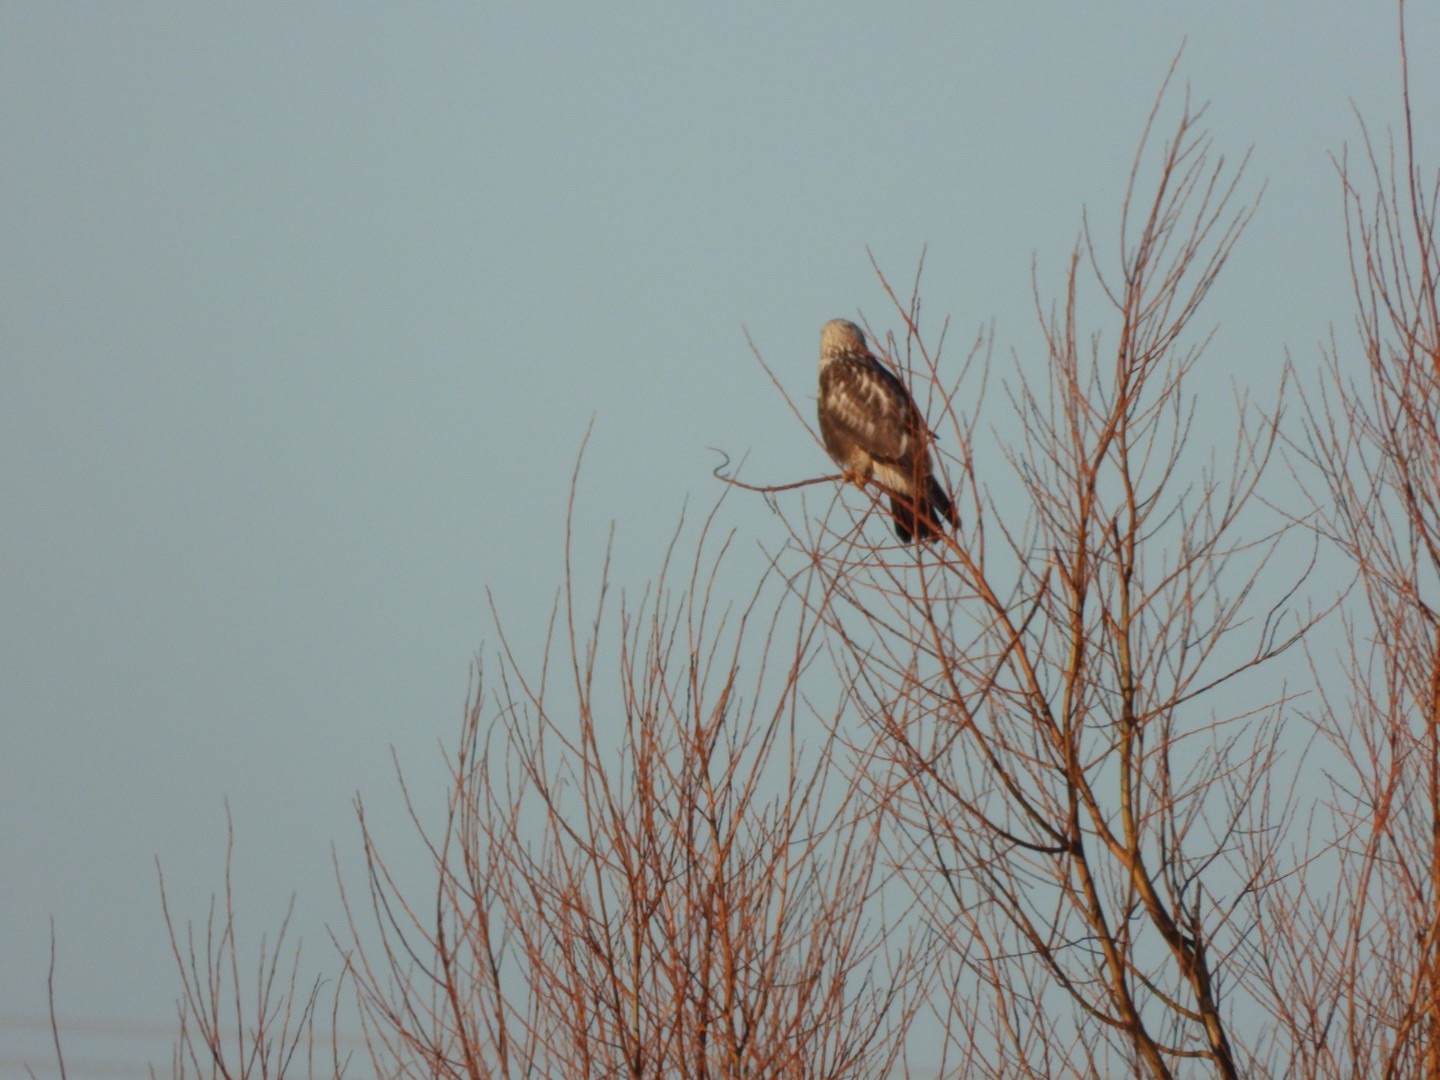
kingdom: Animalia
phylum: Chordata
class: Aves
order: Accipitriformes
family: Accipitridae
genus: Buteo
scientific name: Buteo lagopus
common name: Fjeldvåge
